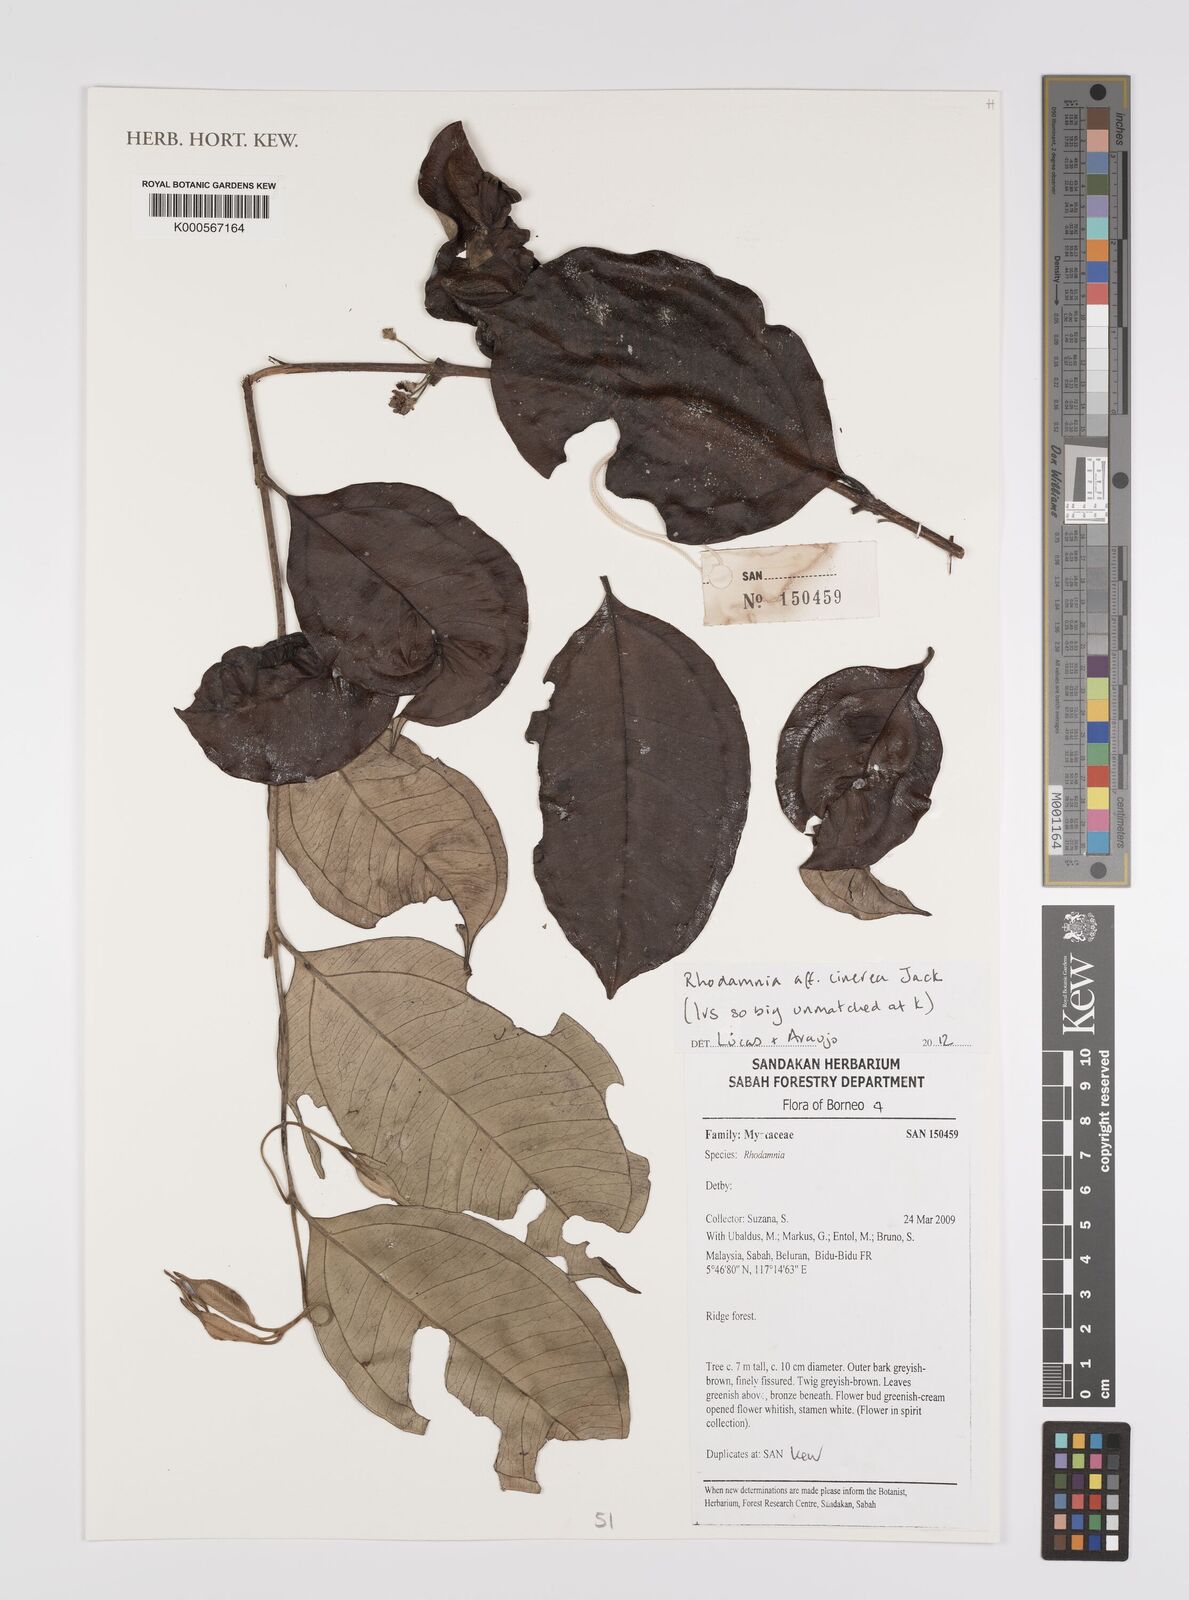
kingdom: Plantae
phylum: Tracheophyta
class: Magnoliopsida
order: Myrtales
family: Myrtaceae
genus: Rhodamnia
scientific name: Rhodamnia cinerea
